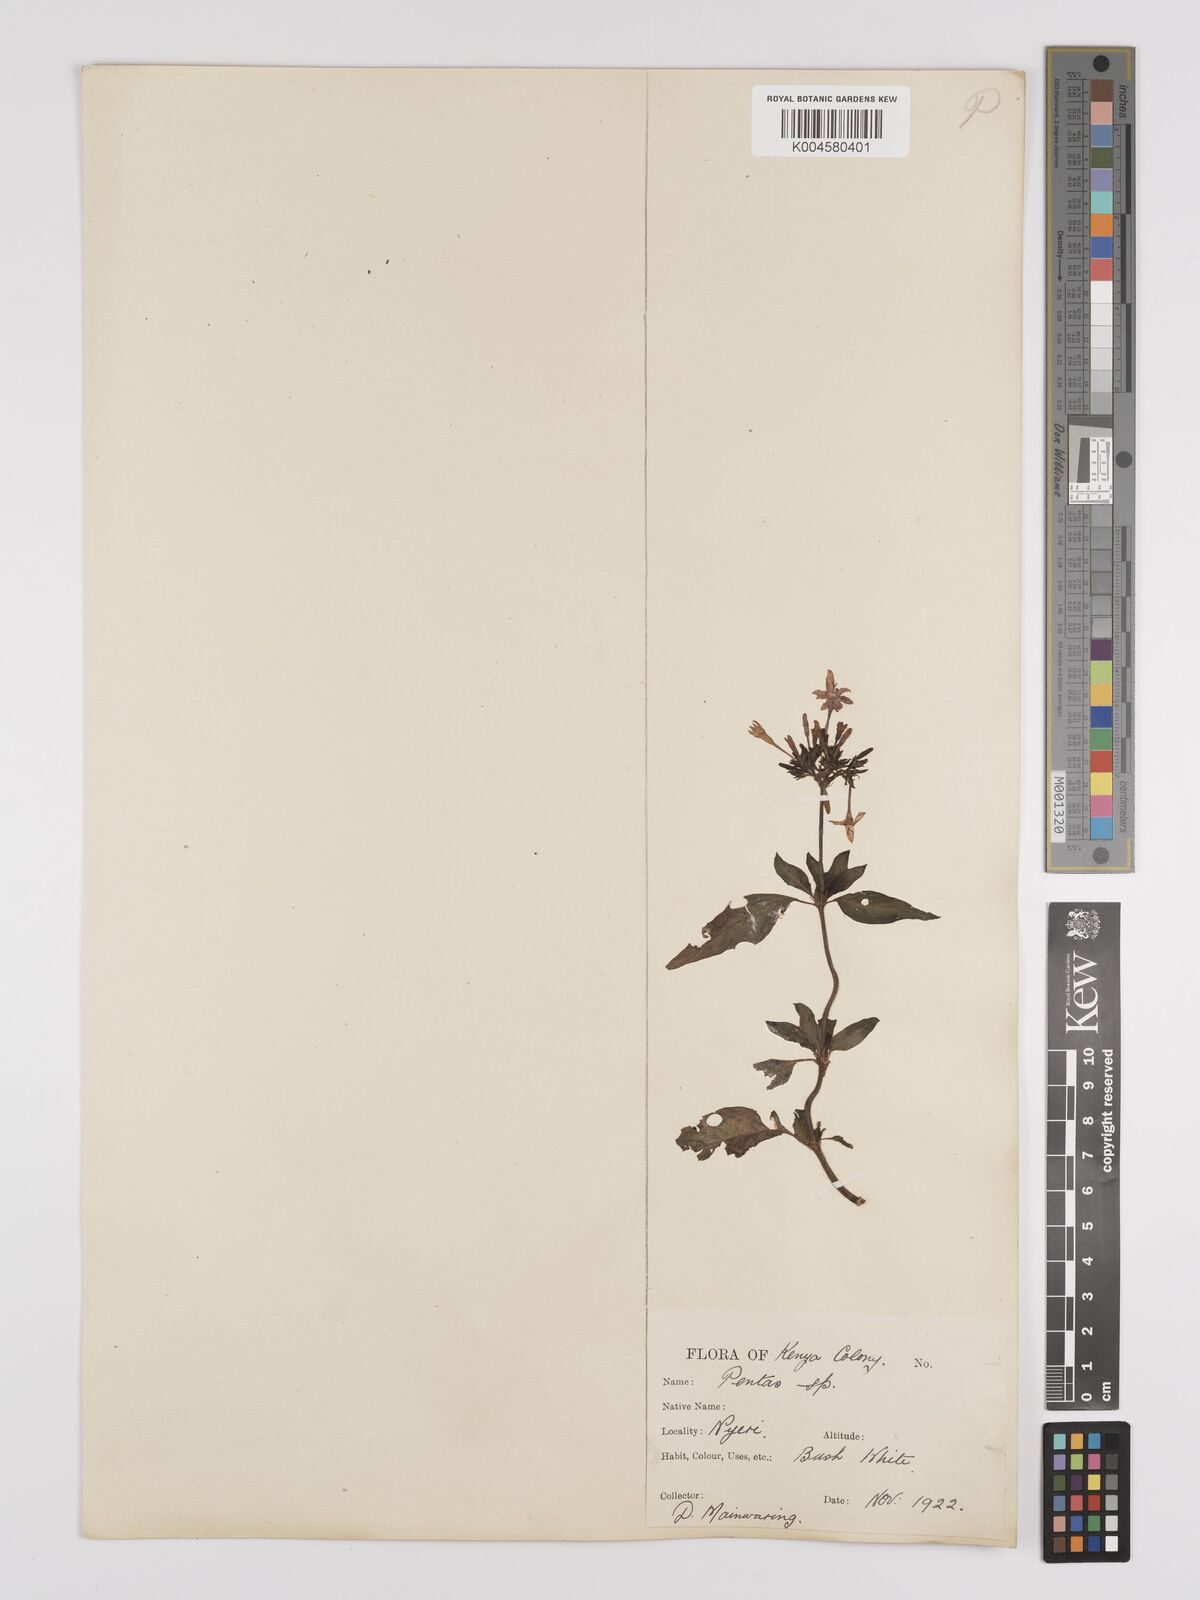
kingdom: Plantae
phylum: Tracheophyta
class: Magnoliopsida
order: Gentianales
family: Rubiaceae
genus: Pentas
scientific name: Pentas lanceolata
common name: Egyptian starcluster
